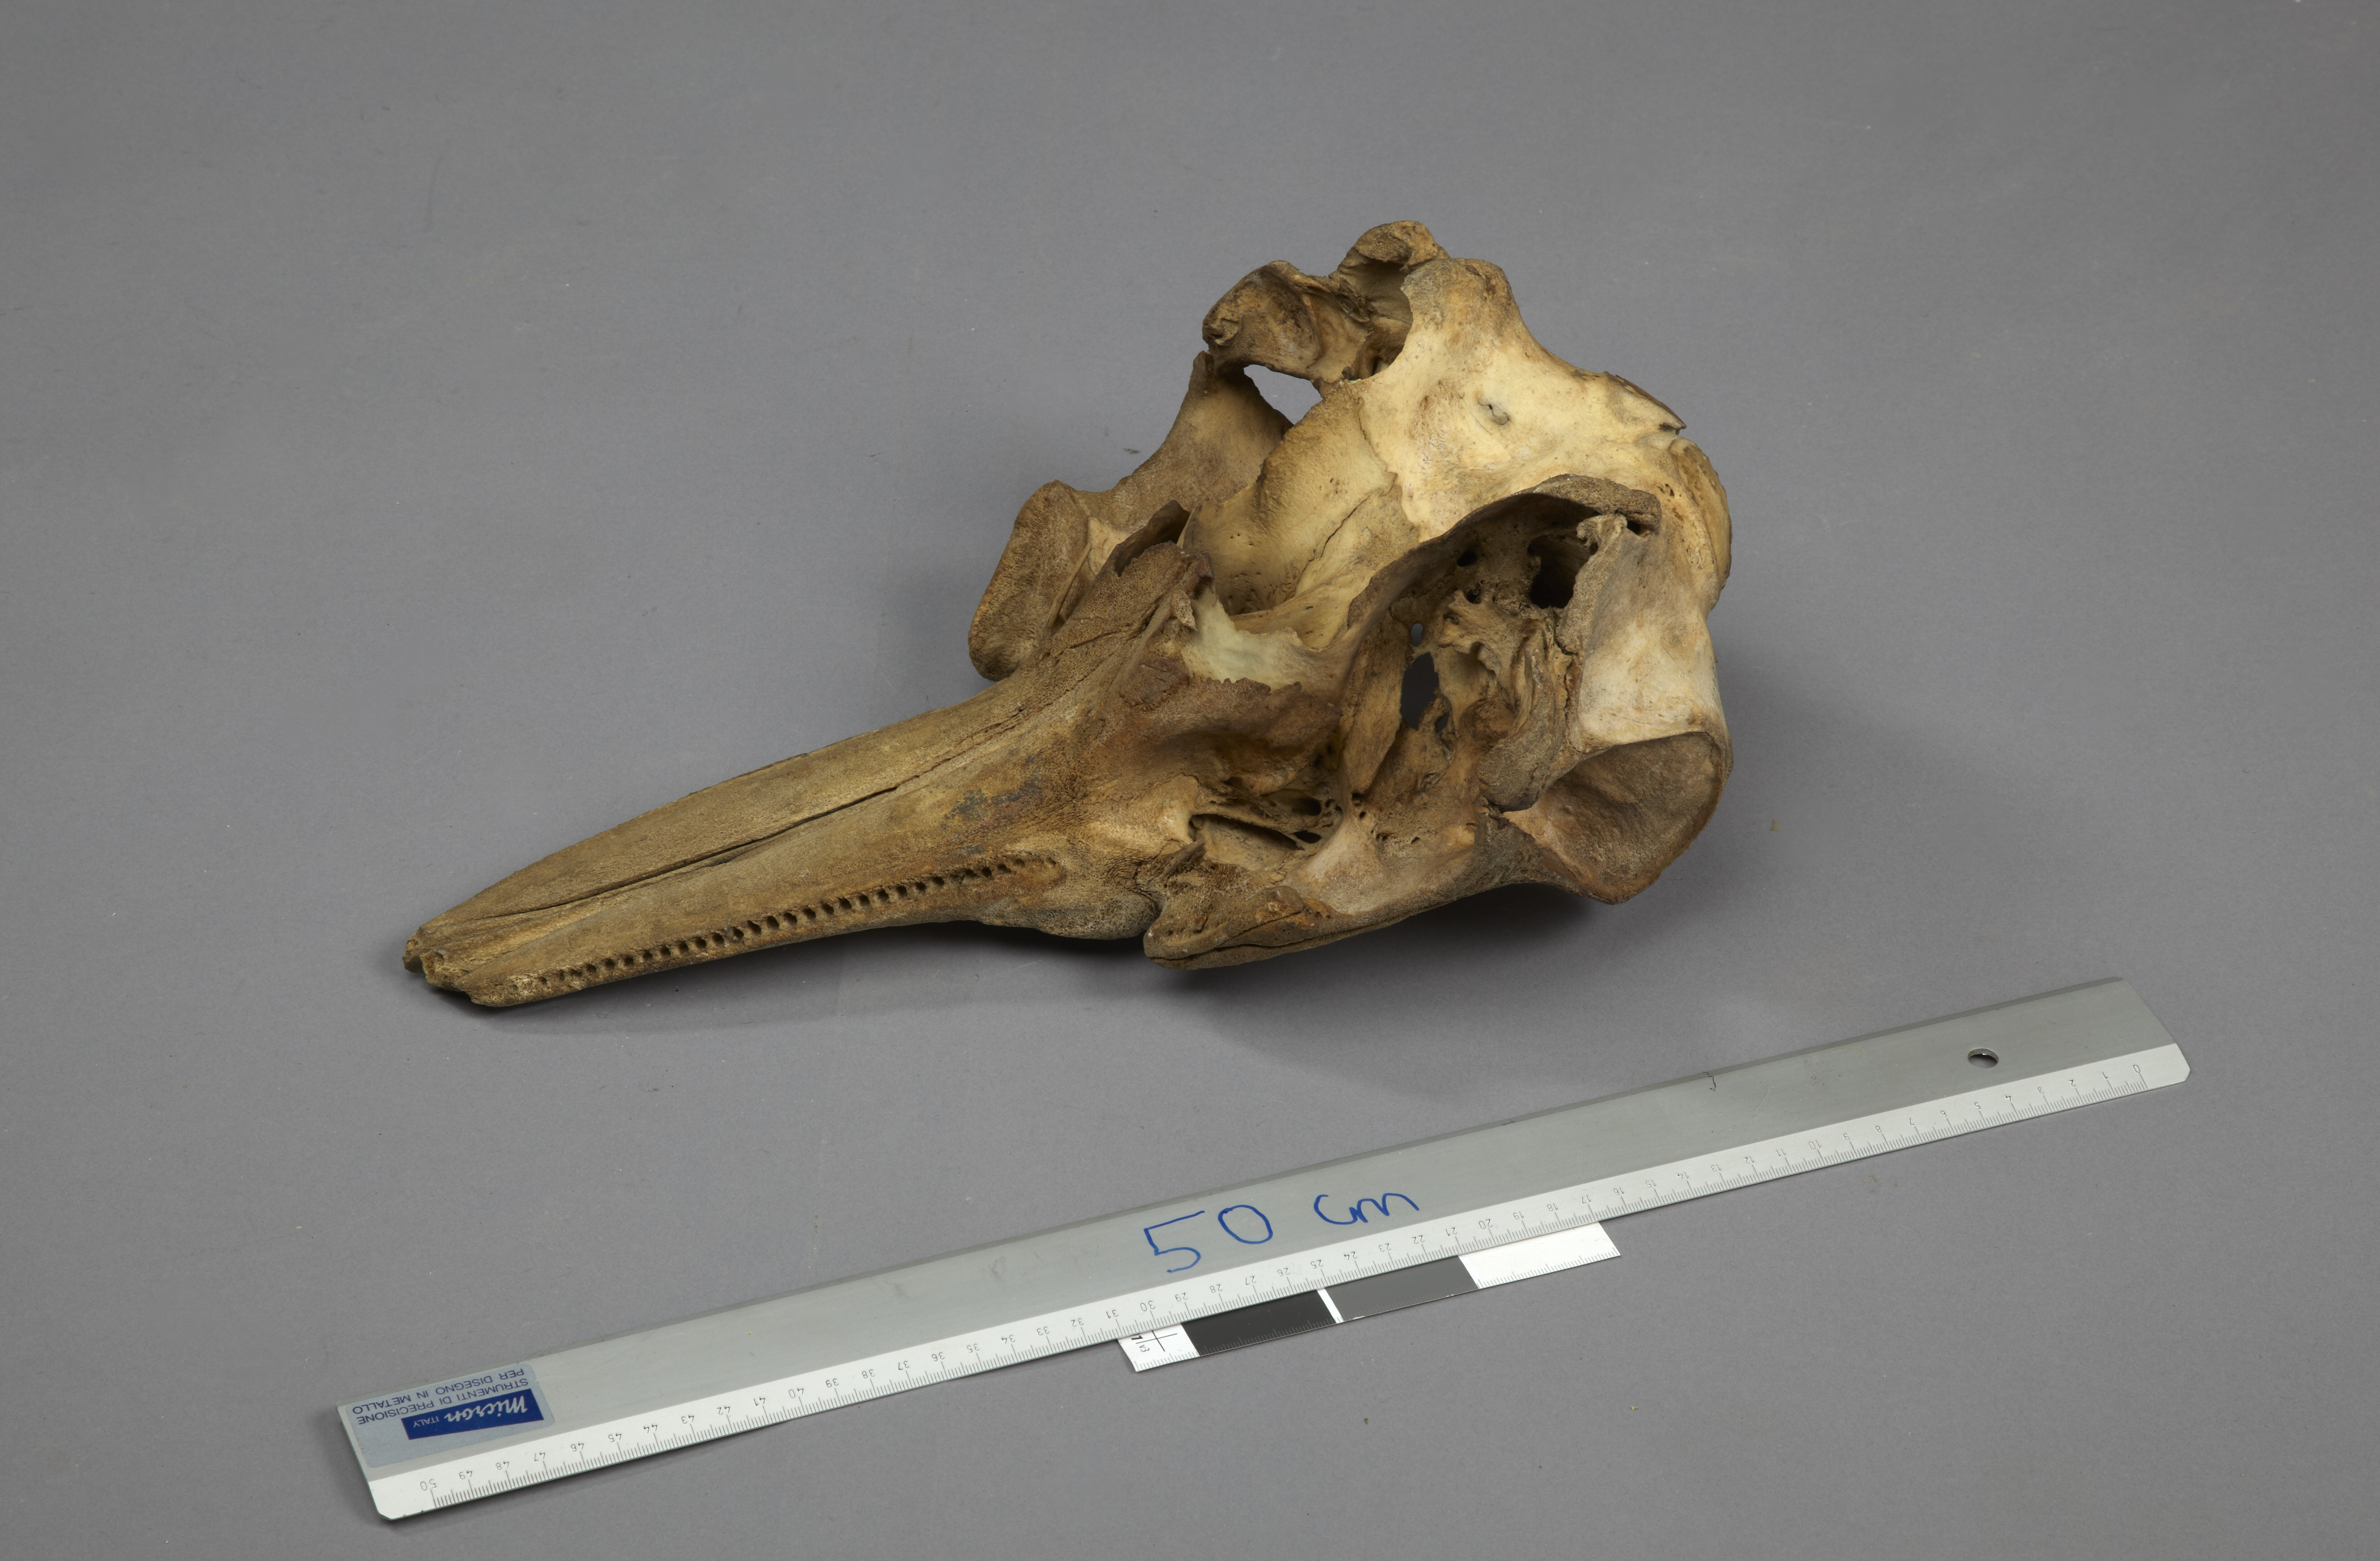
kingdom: Animalia
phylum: Chordata
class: Mammalia
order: Cetacea
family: Delphinidae
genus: Delphinus
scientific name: Delphinus
